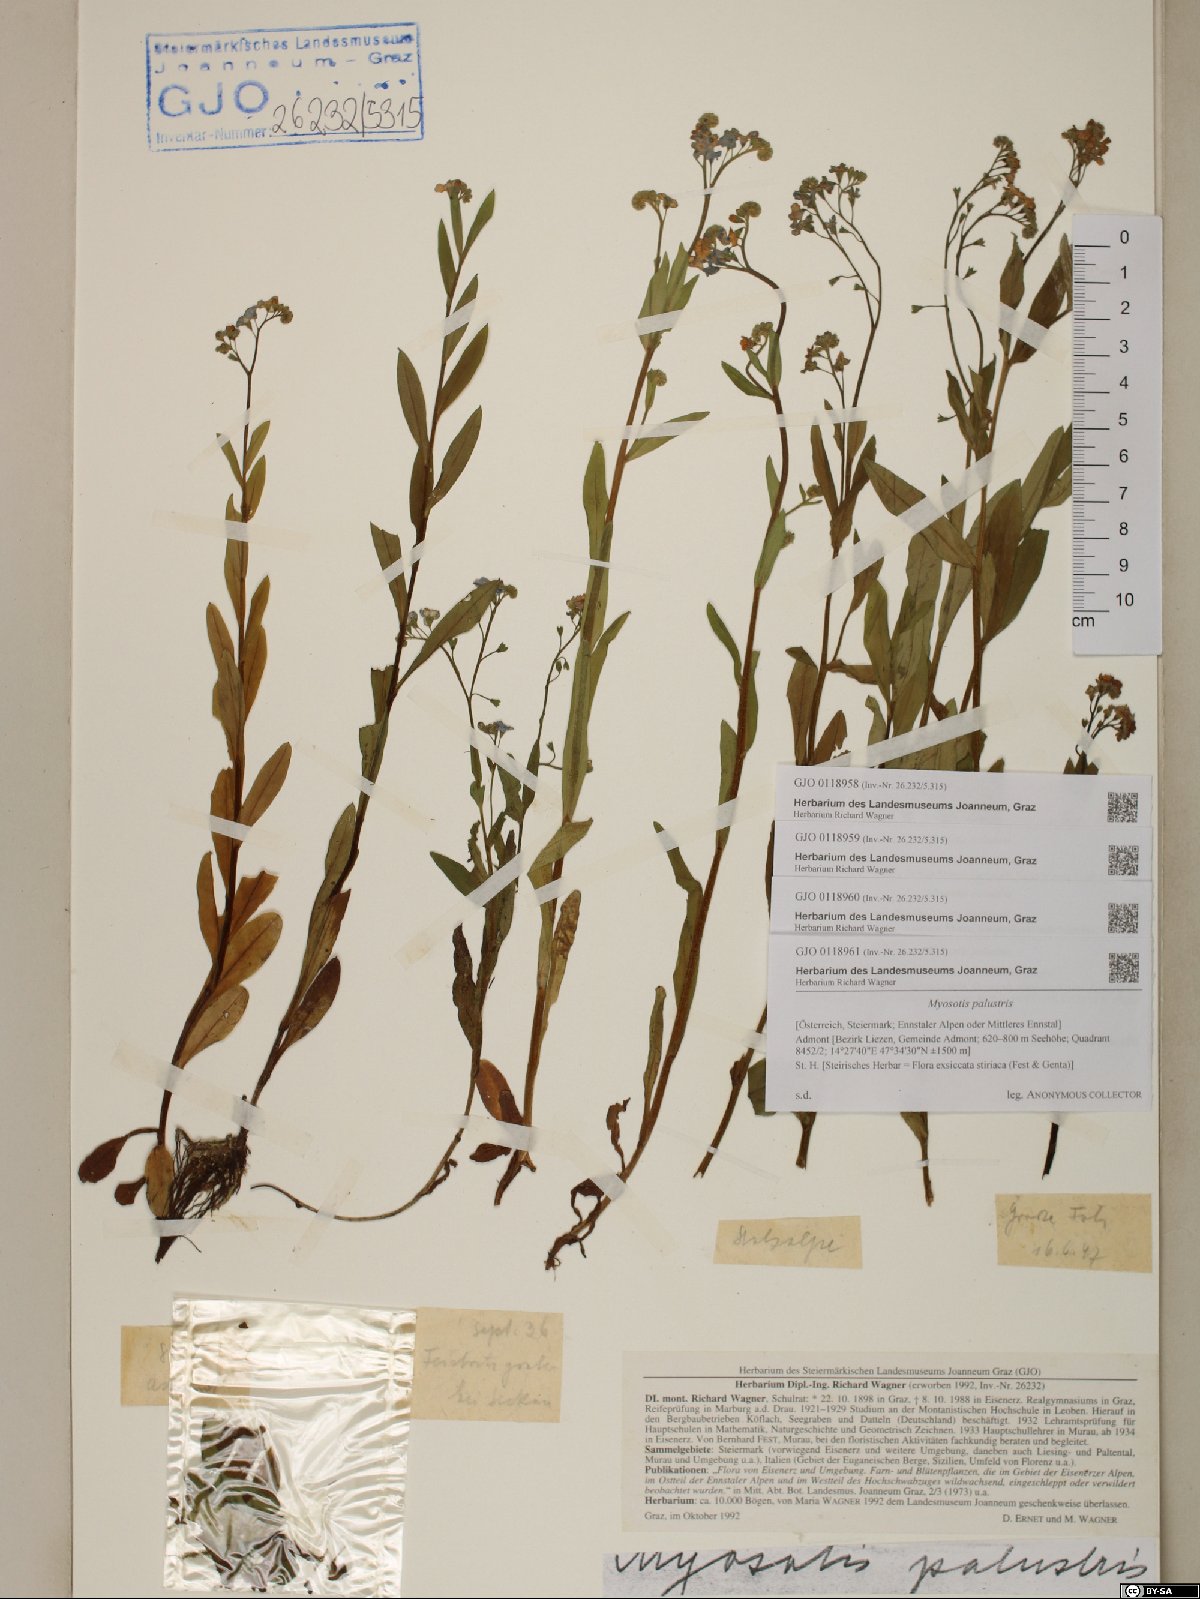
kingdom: Plantae
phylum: Tracheophyta
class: Magnoliopsida
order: Boraginales
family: Boraginaceae
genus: Myosotis
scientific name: Myosotis scorpioides
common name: Water forget-me-not
